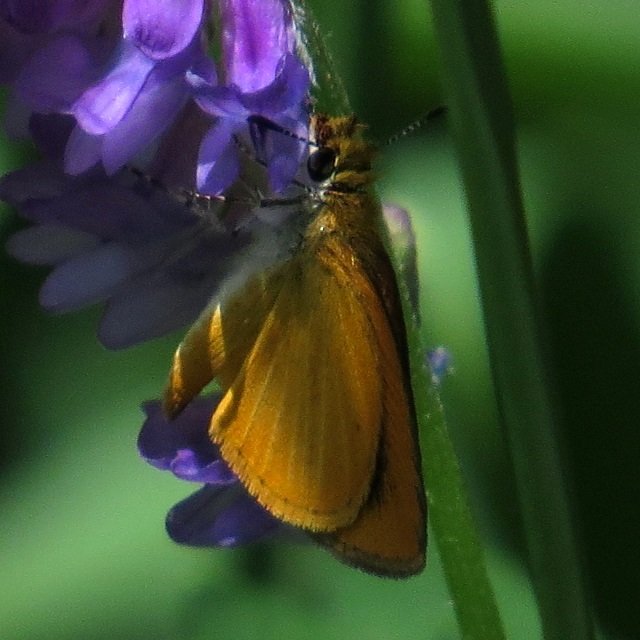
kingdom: Animalia
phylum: Arthropoda
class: Insecta
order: Lepidoptera
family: Hesperiidae
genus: Thymelicus
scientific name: Thymelicus lineola
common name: European Skipper
